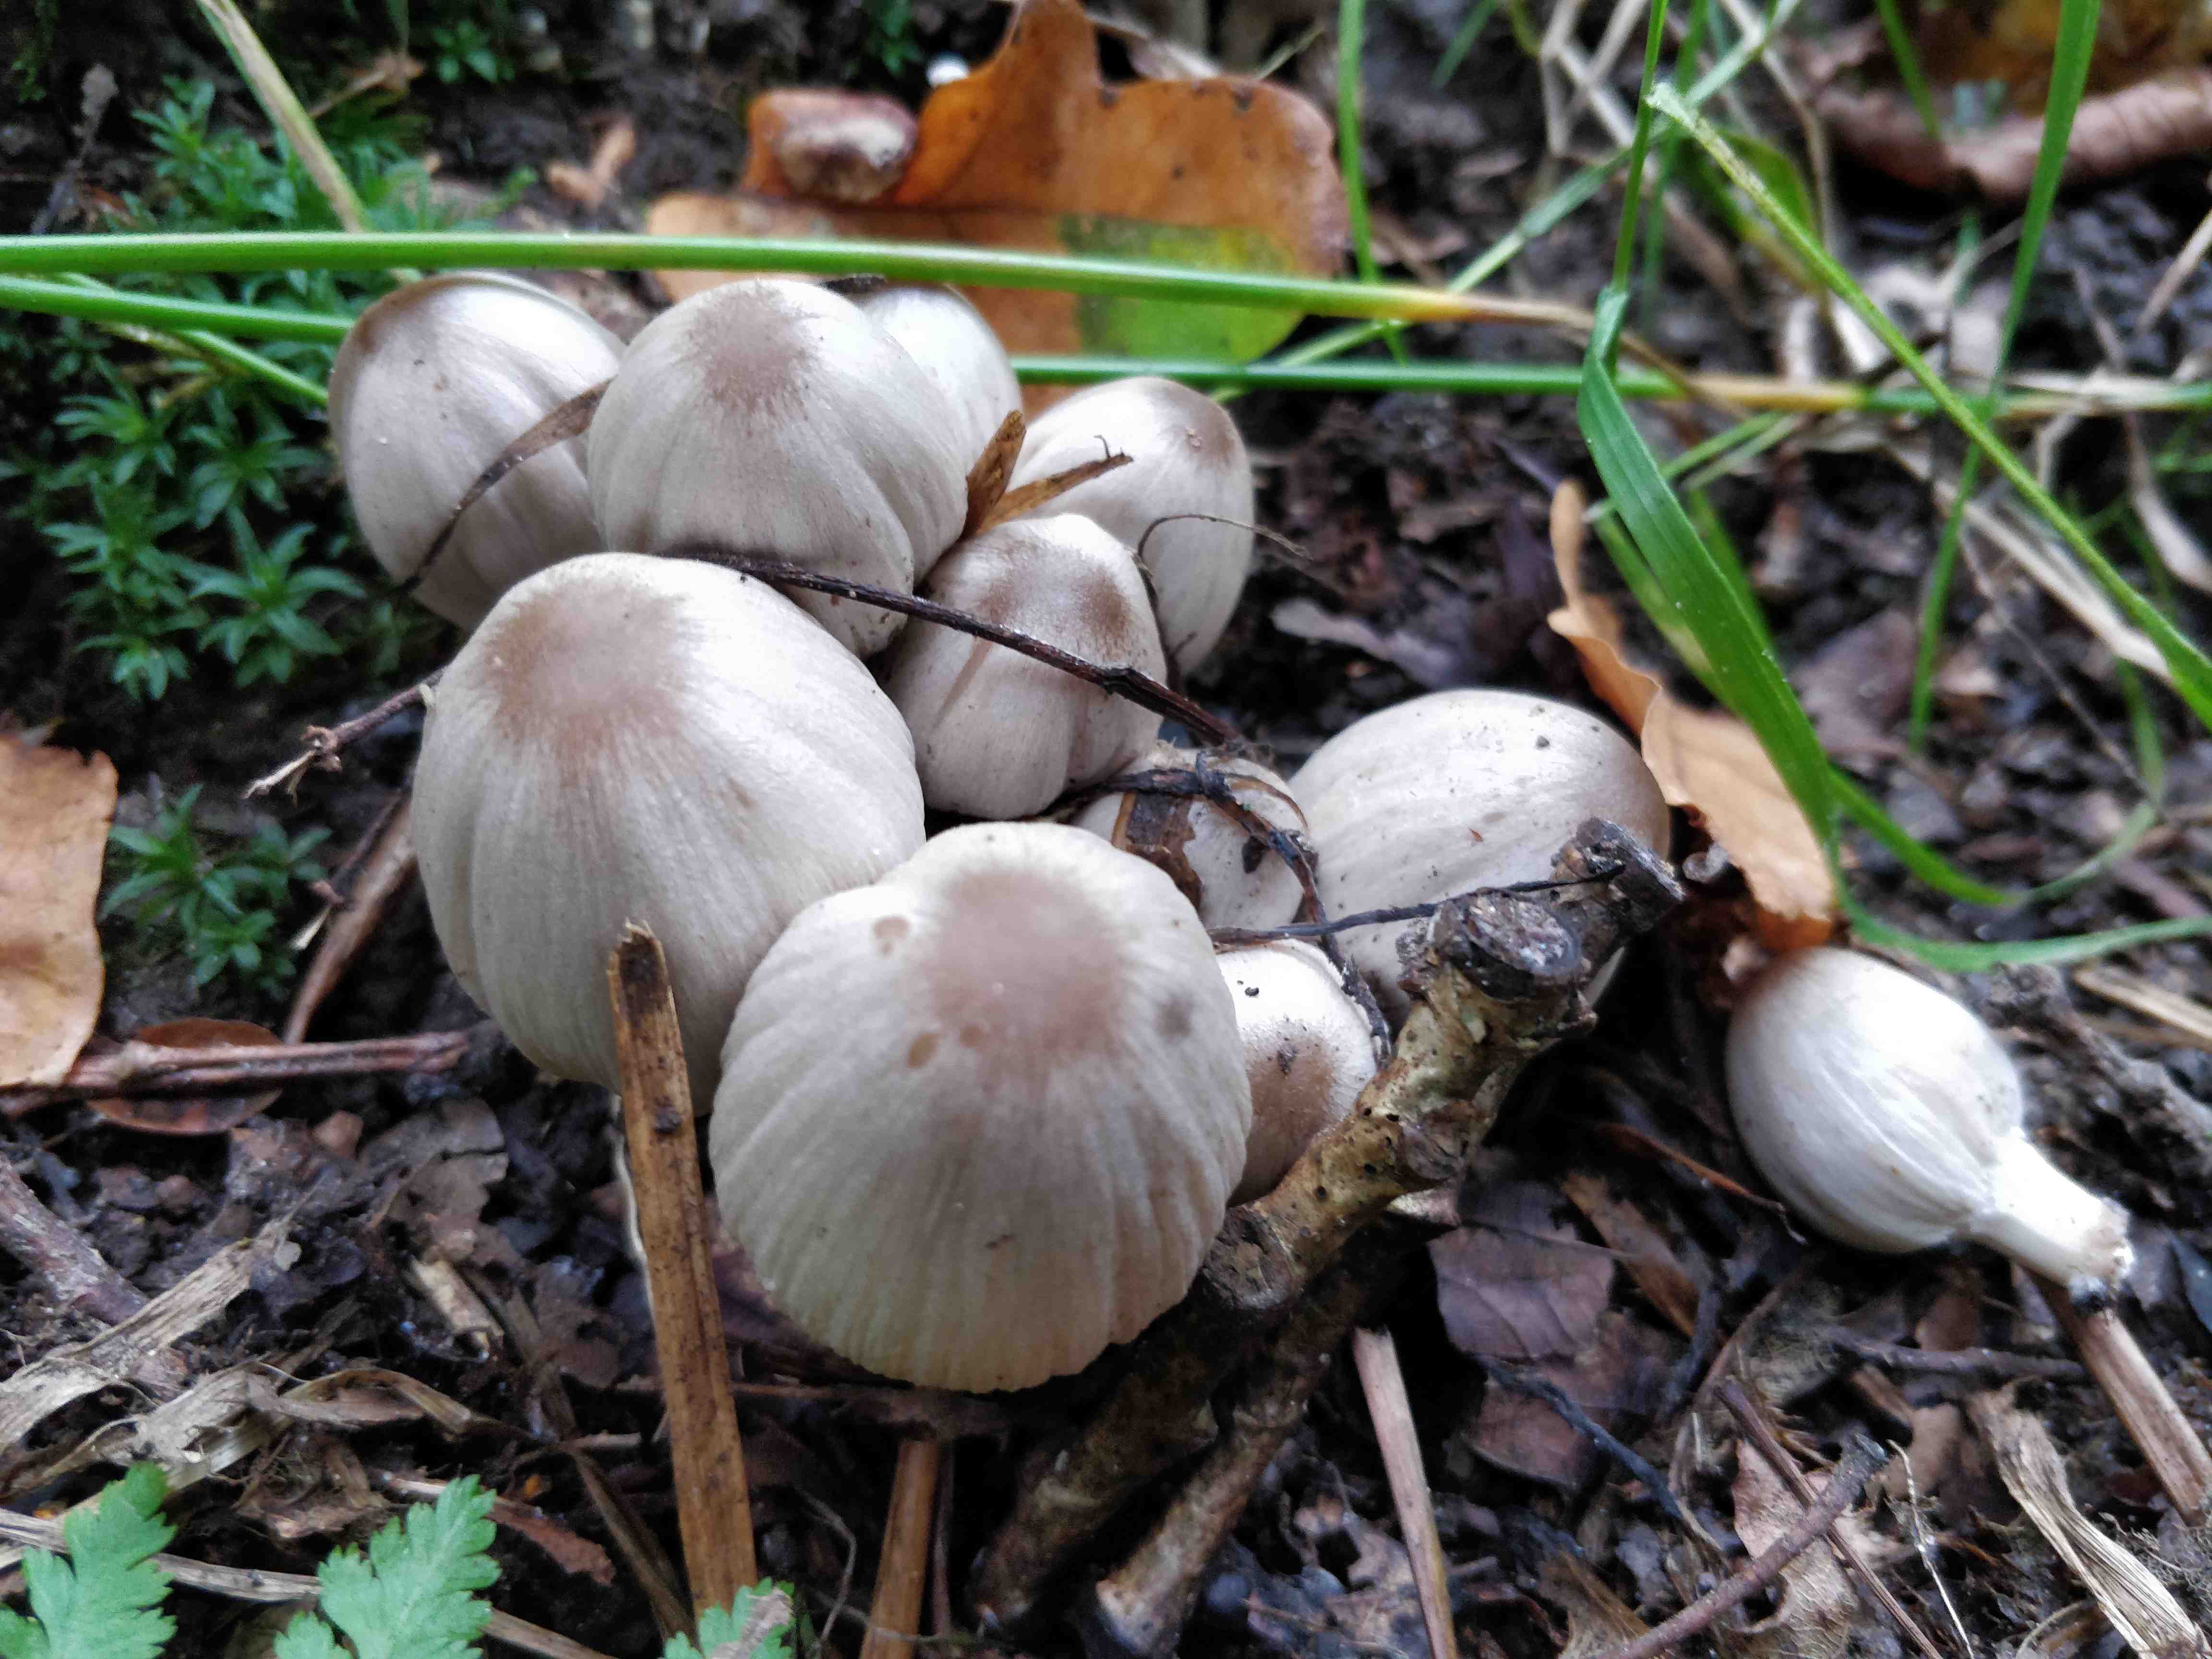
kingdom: Fungi
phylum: Basidiomycota
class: Agaricomycetes
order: Agaricales
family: Psathyrellaceae
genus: Coprinopsis
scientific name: Coprinopsis atramentaria
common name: almindelig blækhat
